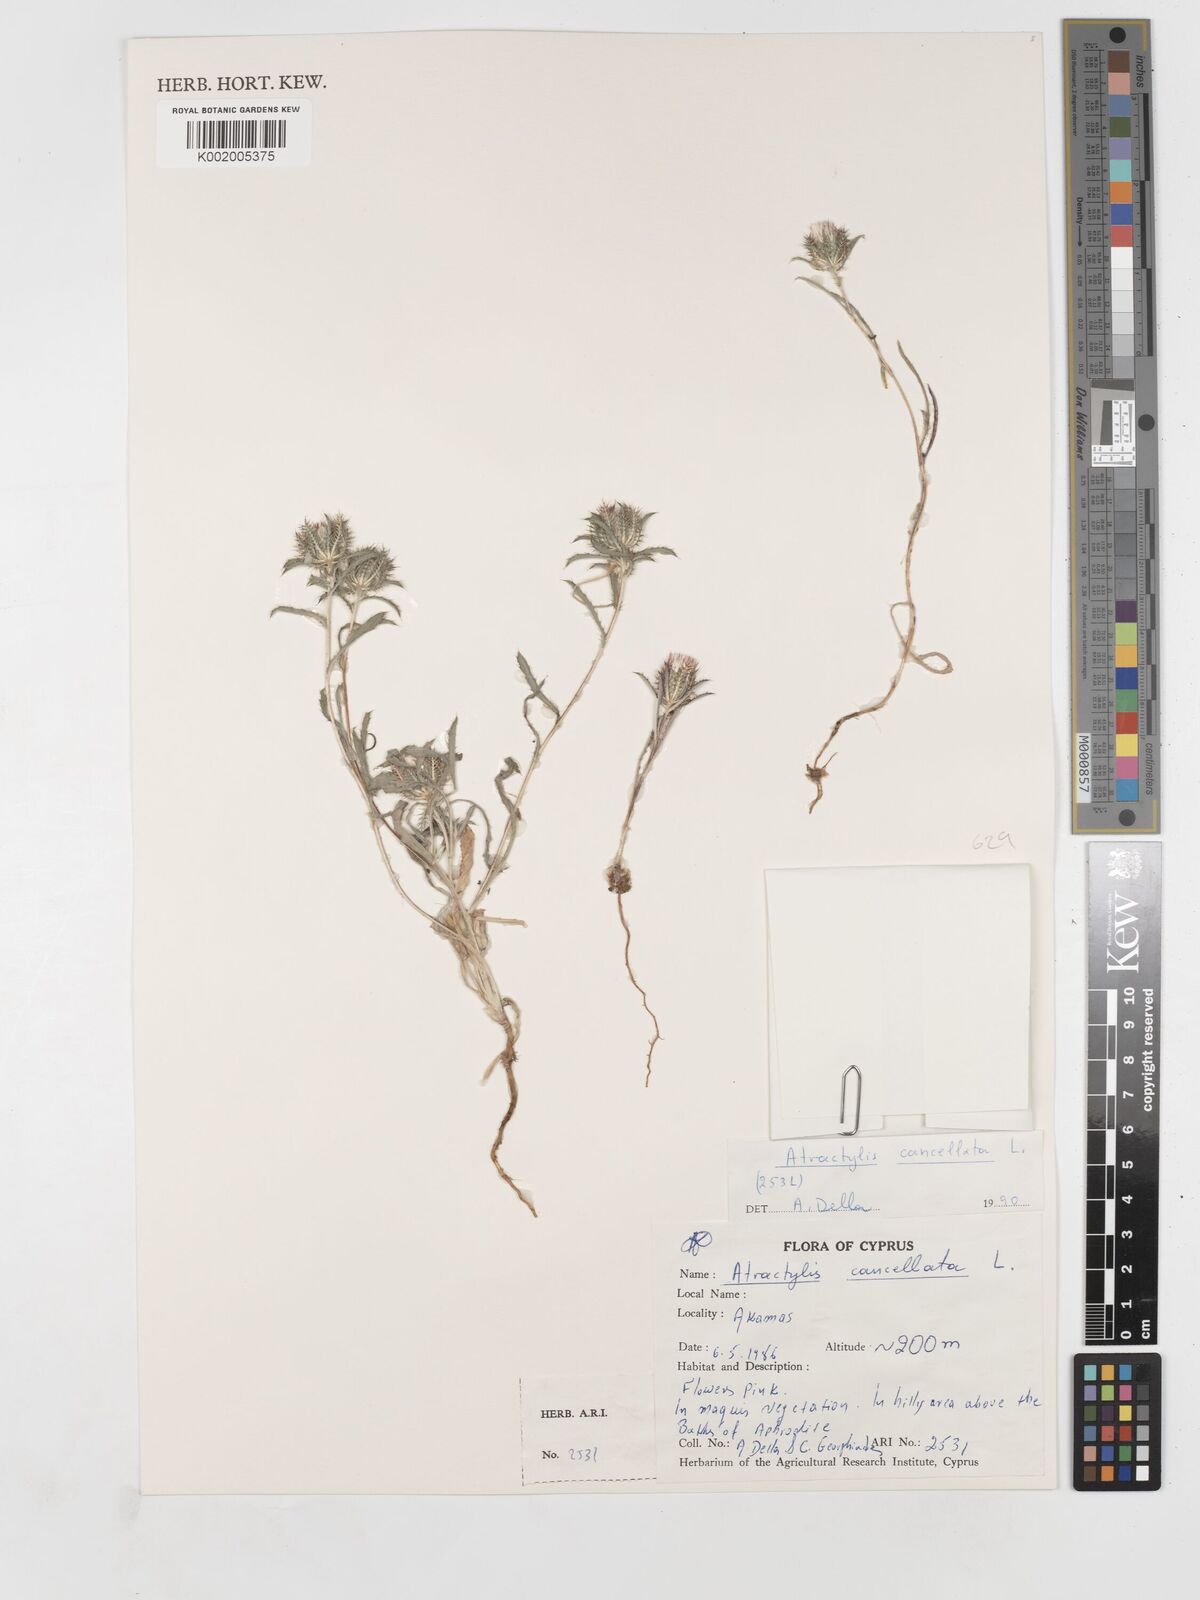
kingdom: Plantae
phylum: Tracheophyta
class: Magnoliopsida
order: Asterales
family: Asteraceae
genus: Atractylis
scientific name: Atractylis cancellata
